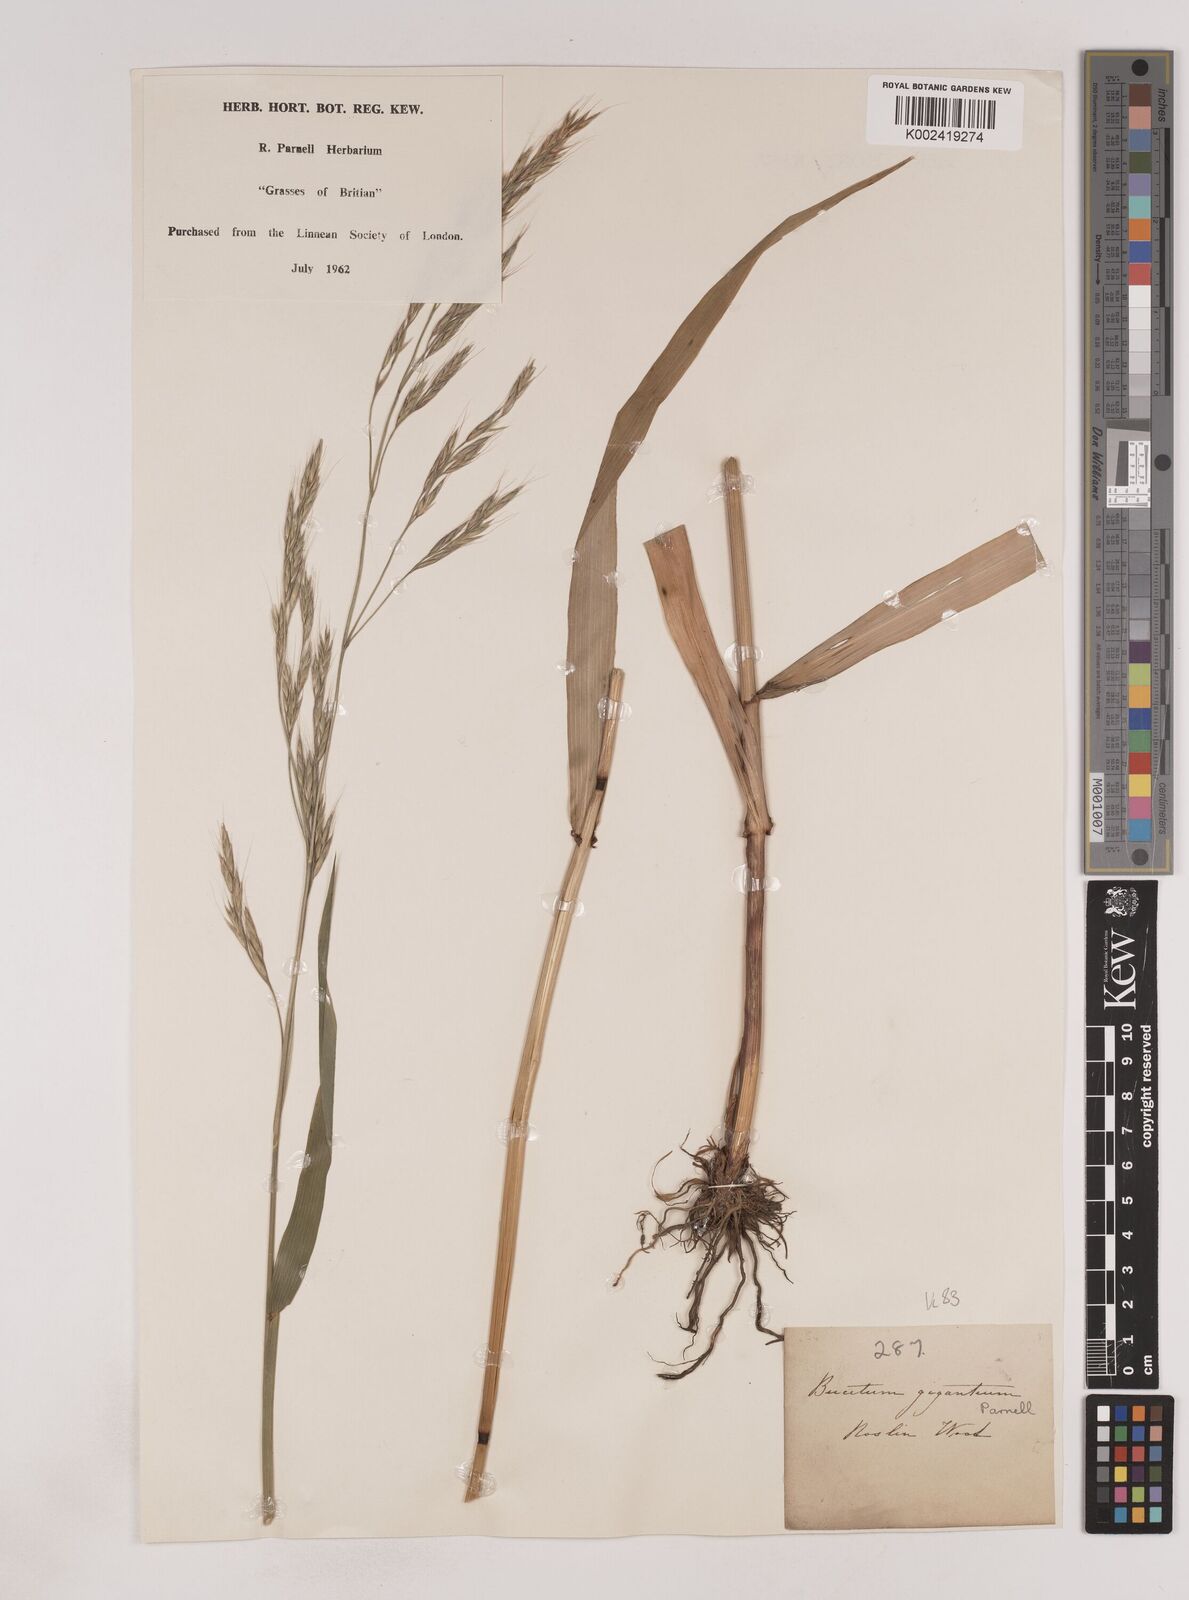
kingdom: Plantae
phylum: Tracheophyta
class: Liliopsida
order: Poales
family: Poaceae
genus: Lolium
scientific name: Lolium giganteum
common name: Giant fescue
